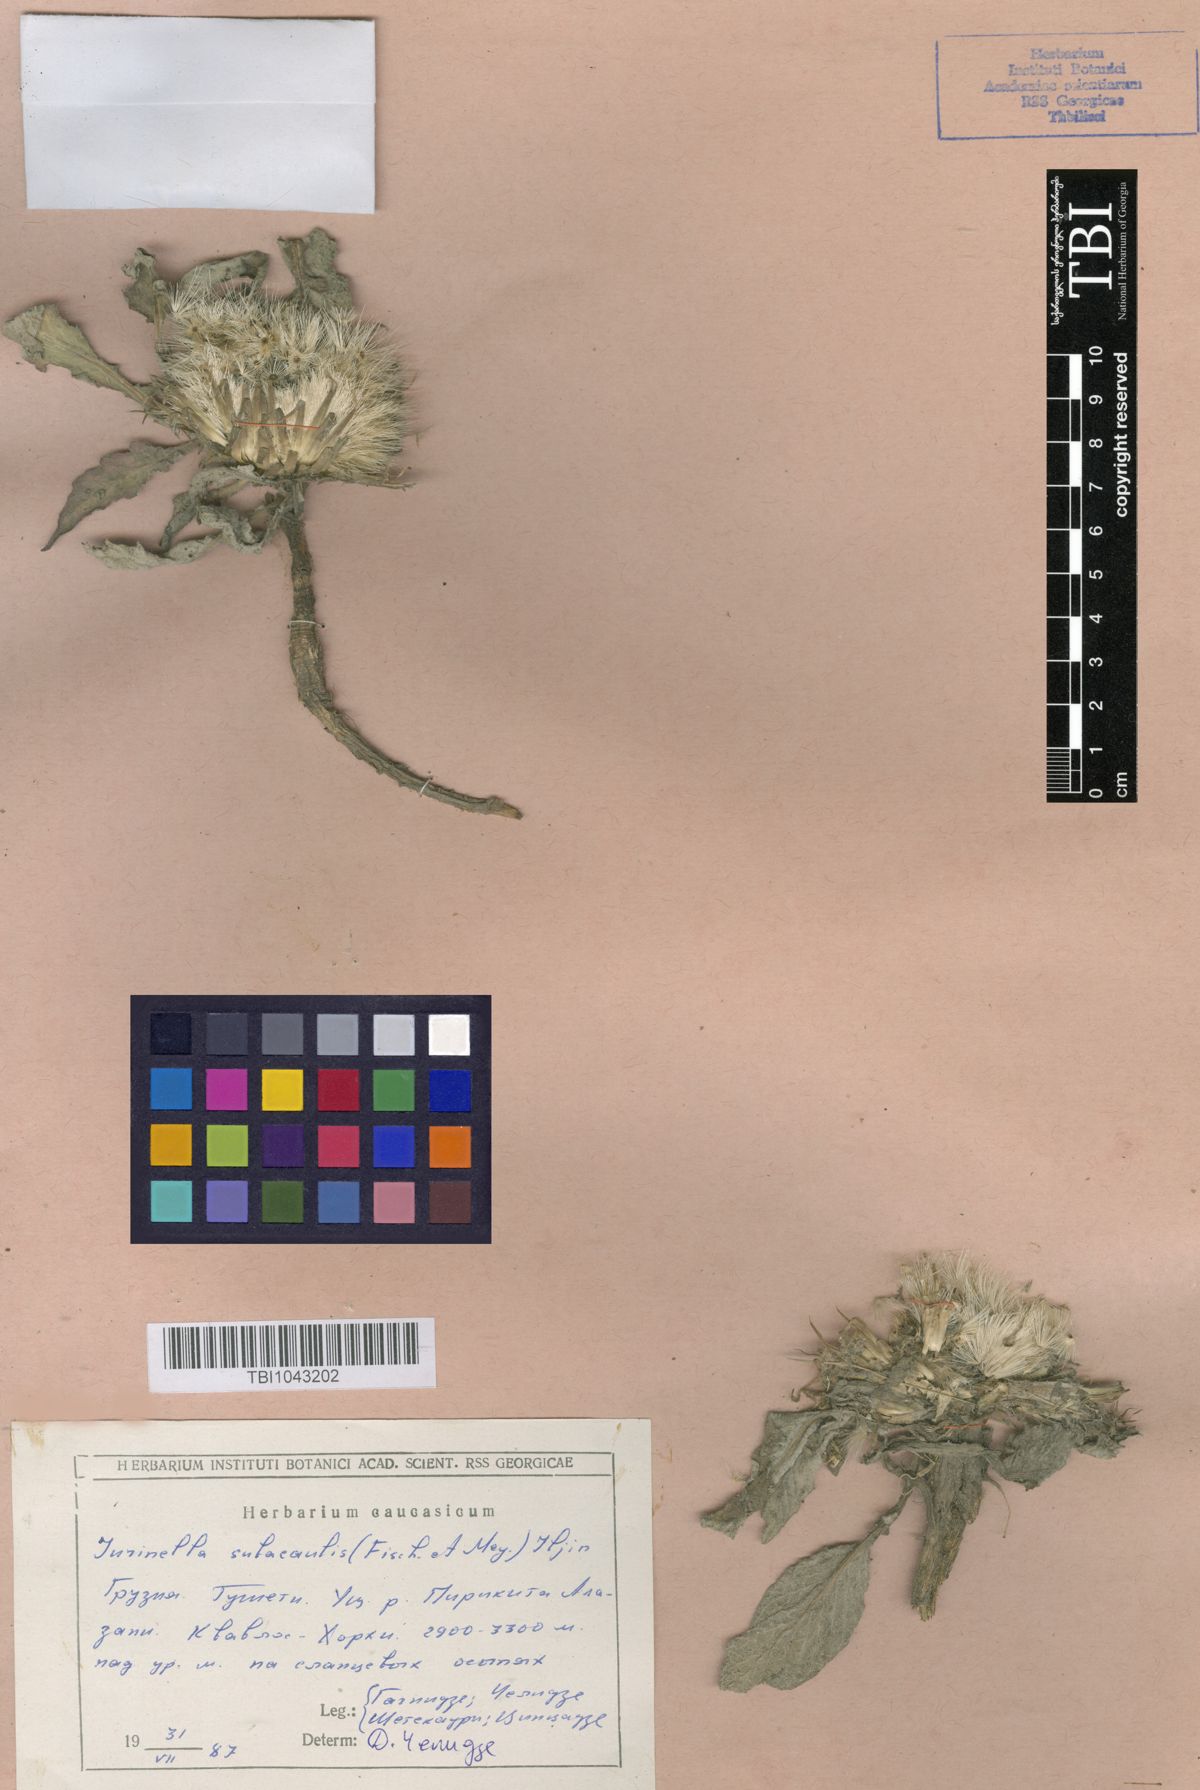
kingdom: Plantae
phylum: Tracheophyta
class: Magnoliopsida
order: Asterales
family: Asteraceae
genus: Jurinea
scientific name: Jurinea moschus
